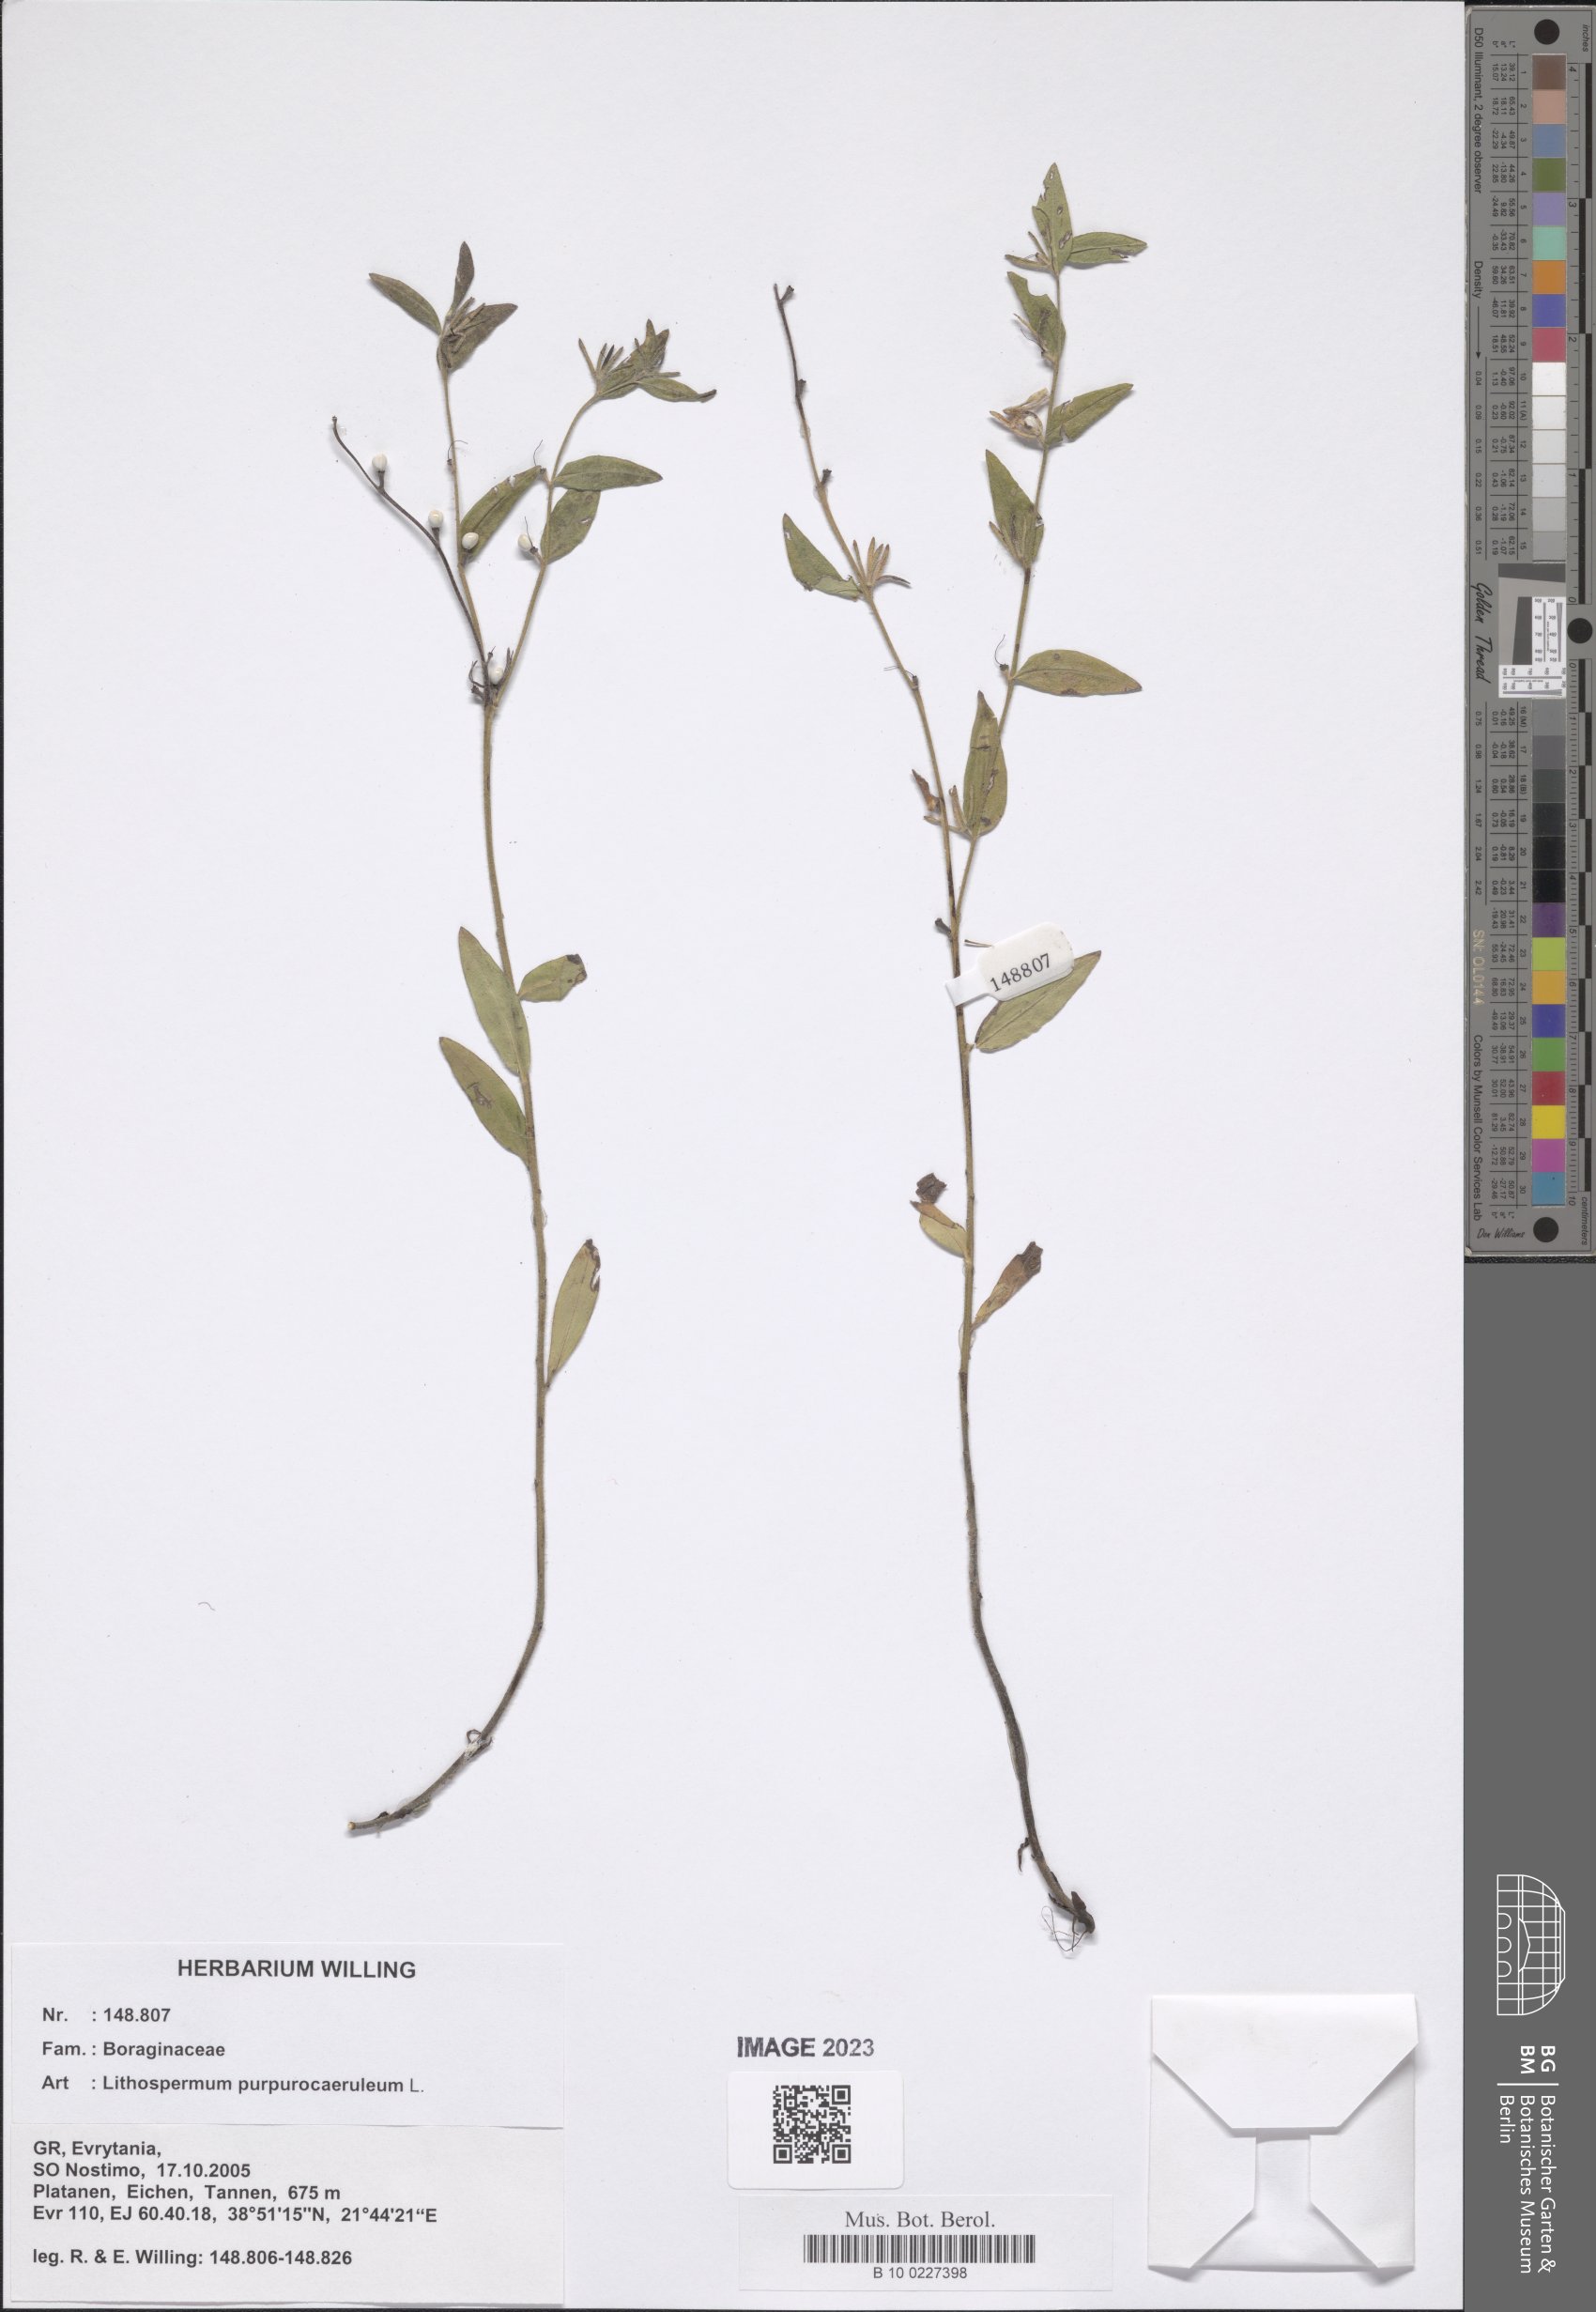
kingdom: Plantae
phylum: Tracheophyta
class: Magnoliopsida
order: Boraginales
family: Boraginaceae
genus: Aegonychon
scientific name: Aegonychon purpurocaeruleum
